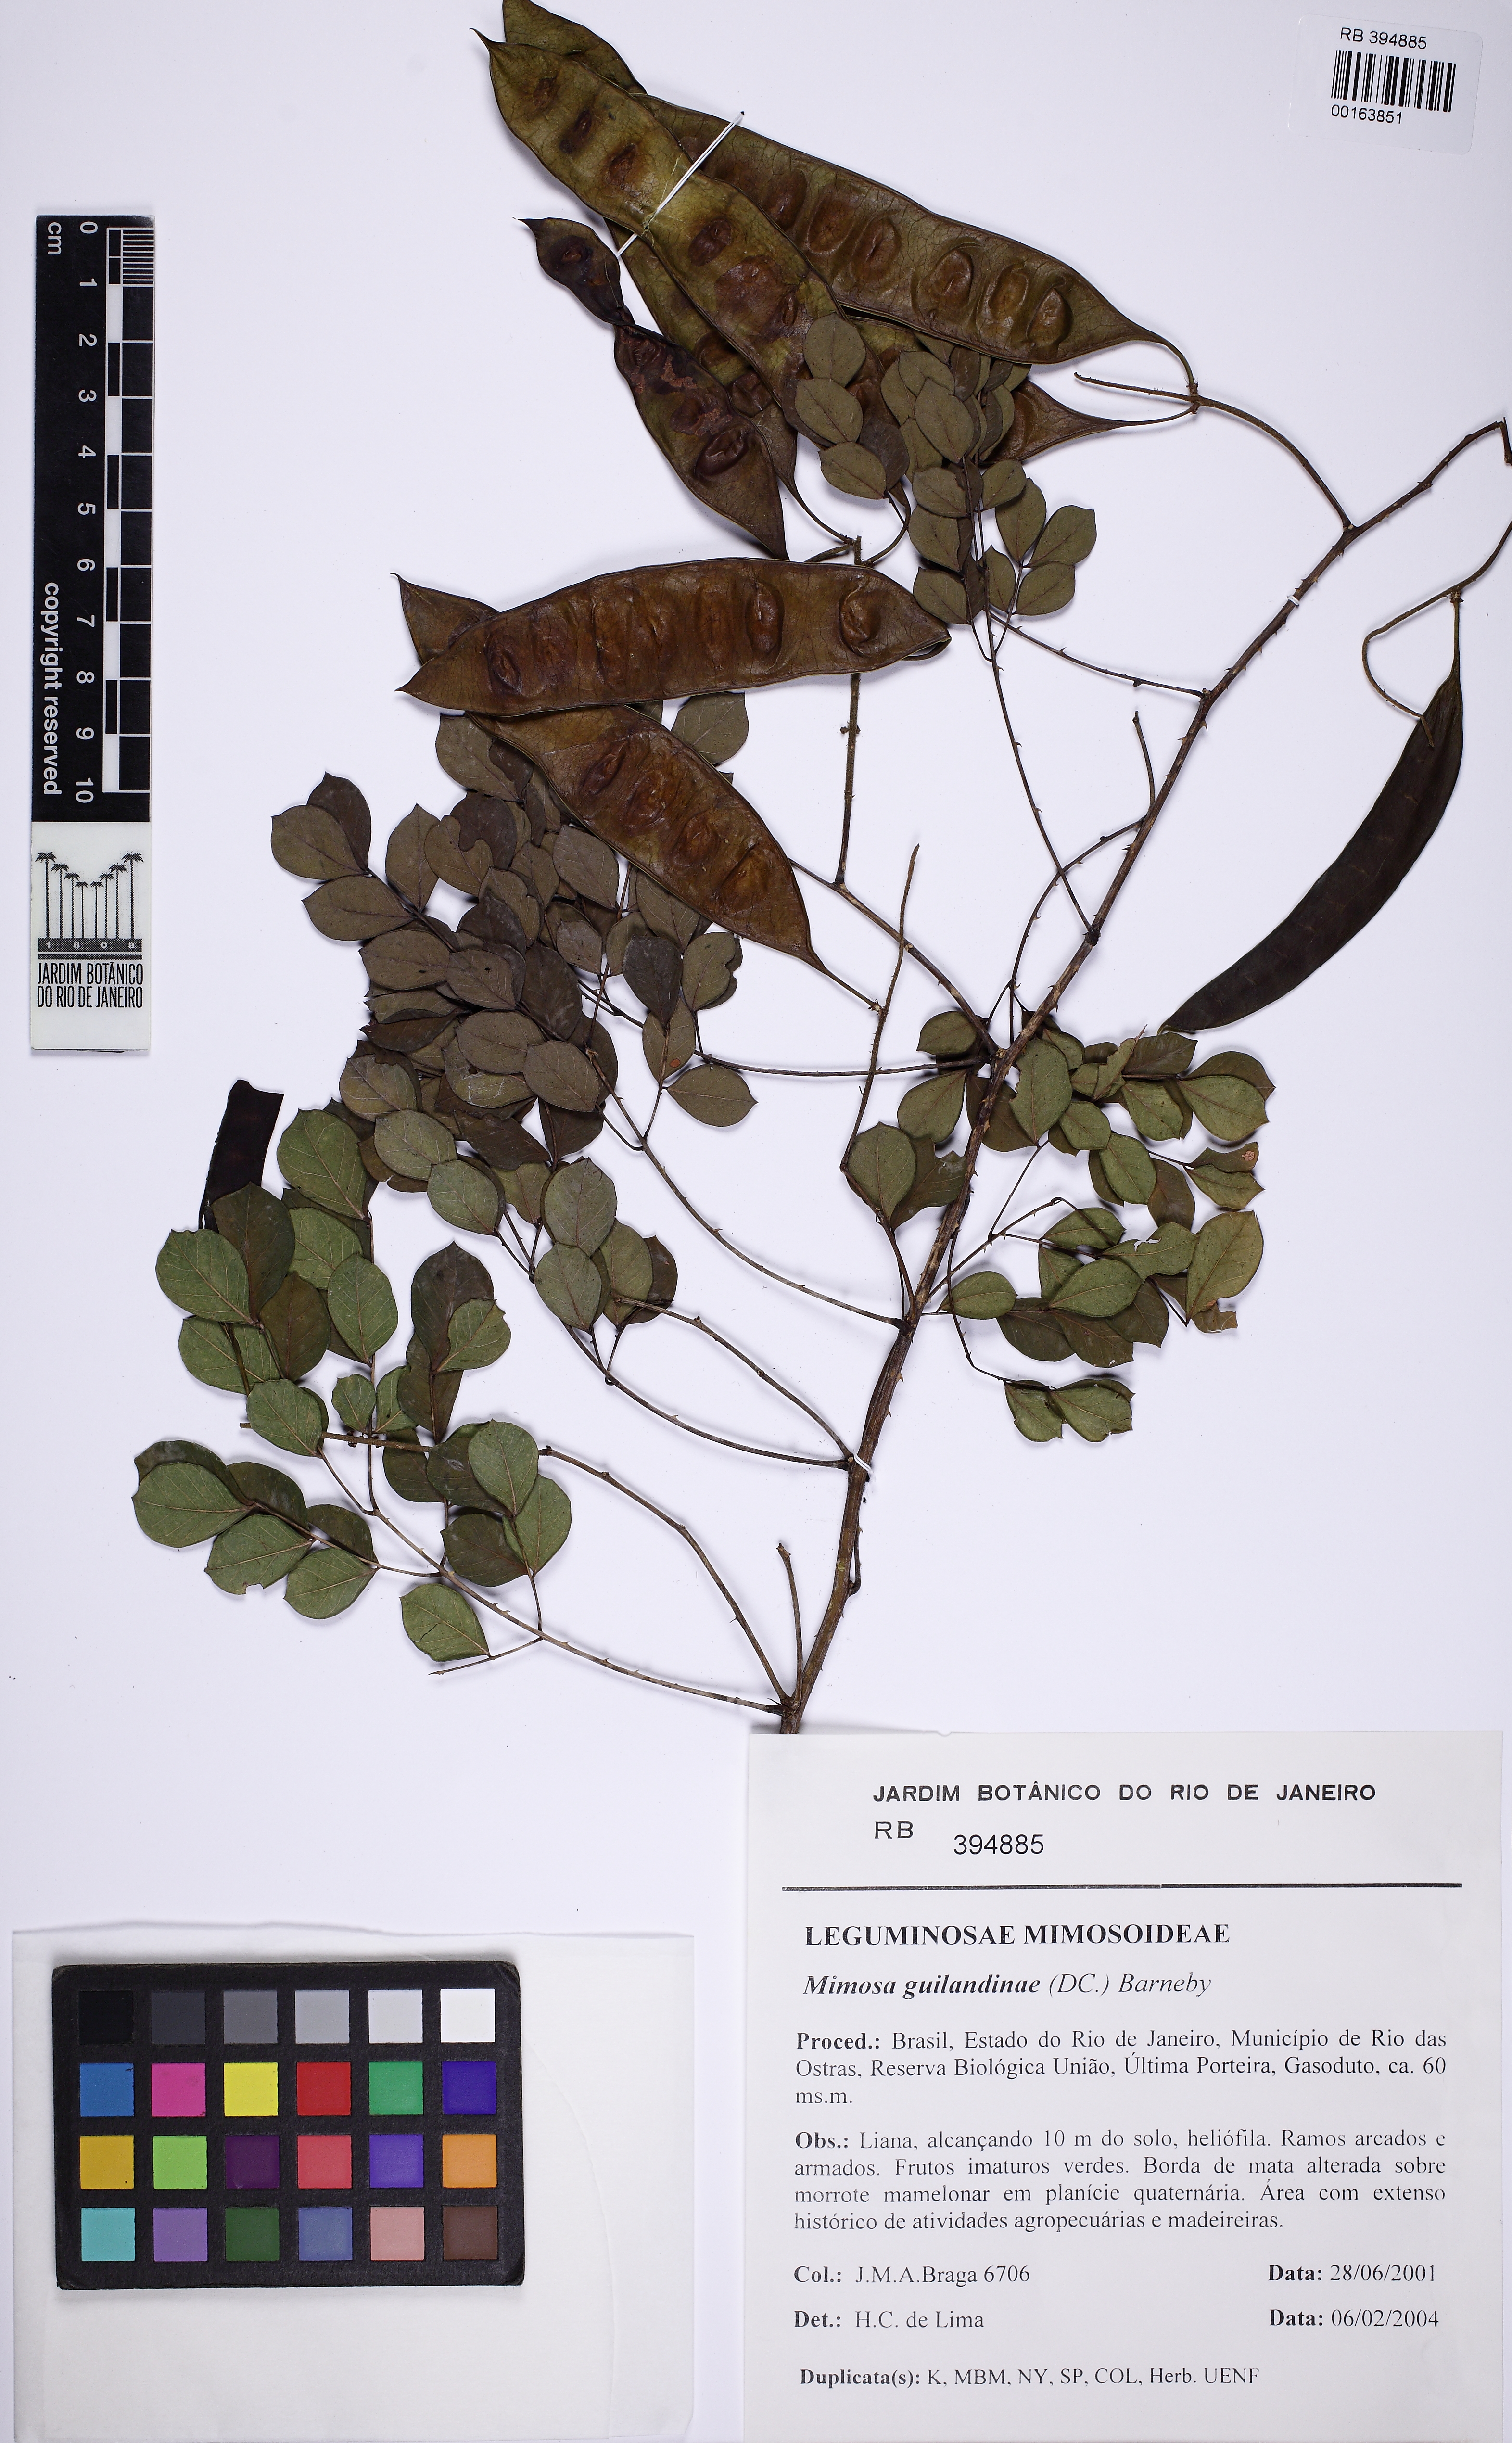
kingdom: Plantae
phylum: Tracheophyta
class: Magnoliopsida
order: Fabales
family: Fabaceae
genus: Piptadenia
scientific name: Piptadenia
